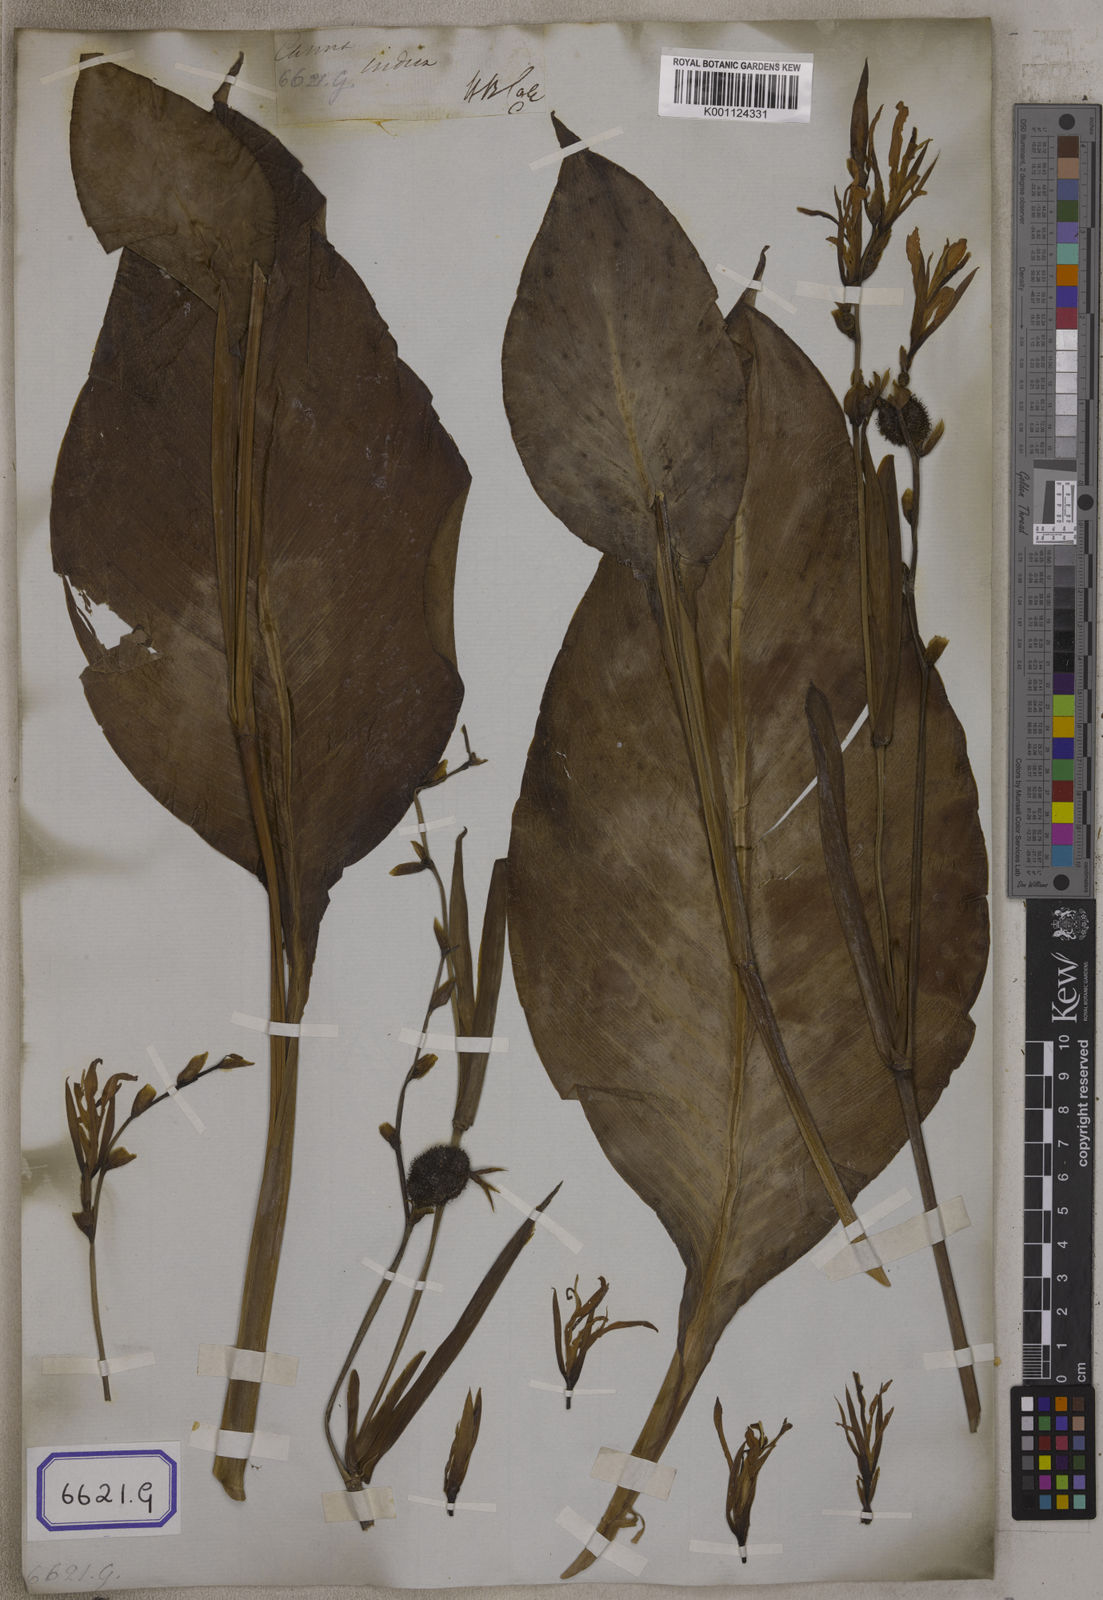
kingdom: Plantae
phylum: Tracheophyta
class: Liliopsida
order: Zingiberales
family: Cannaceae
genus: Canna
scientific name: Canna indica
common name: Indian shot
